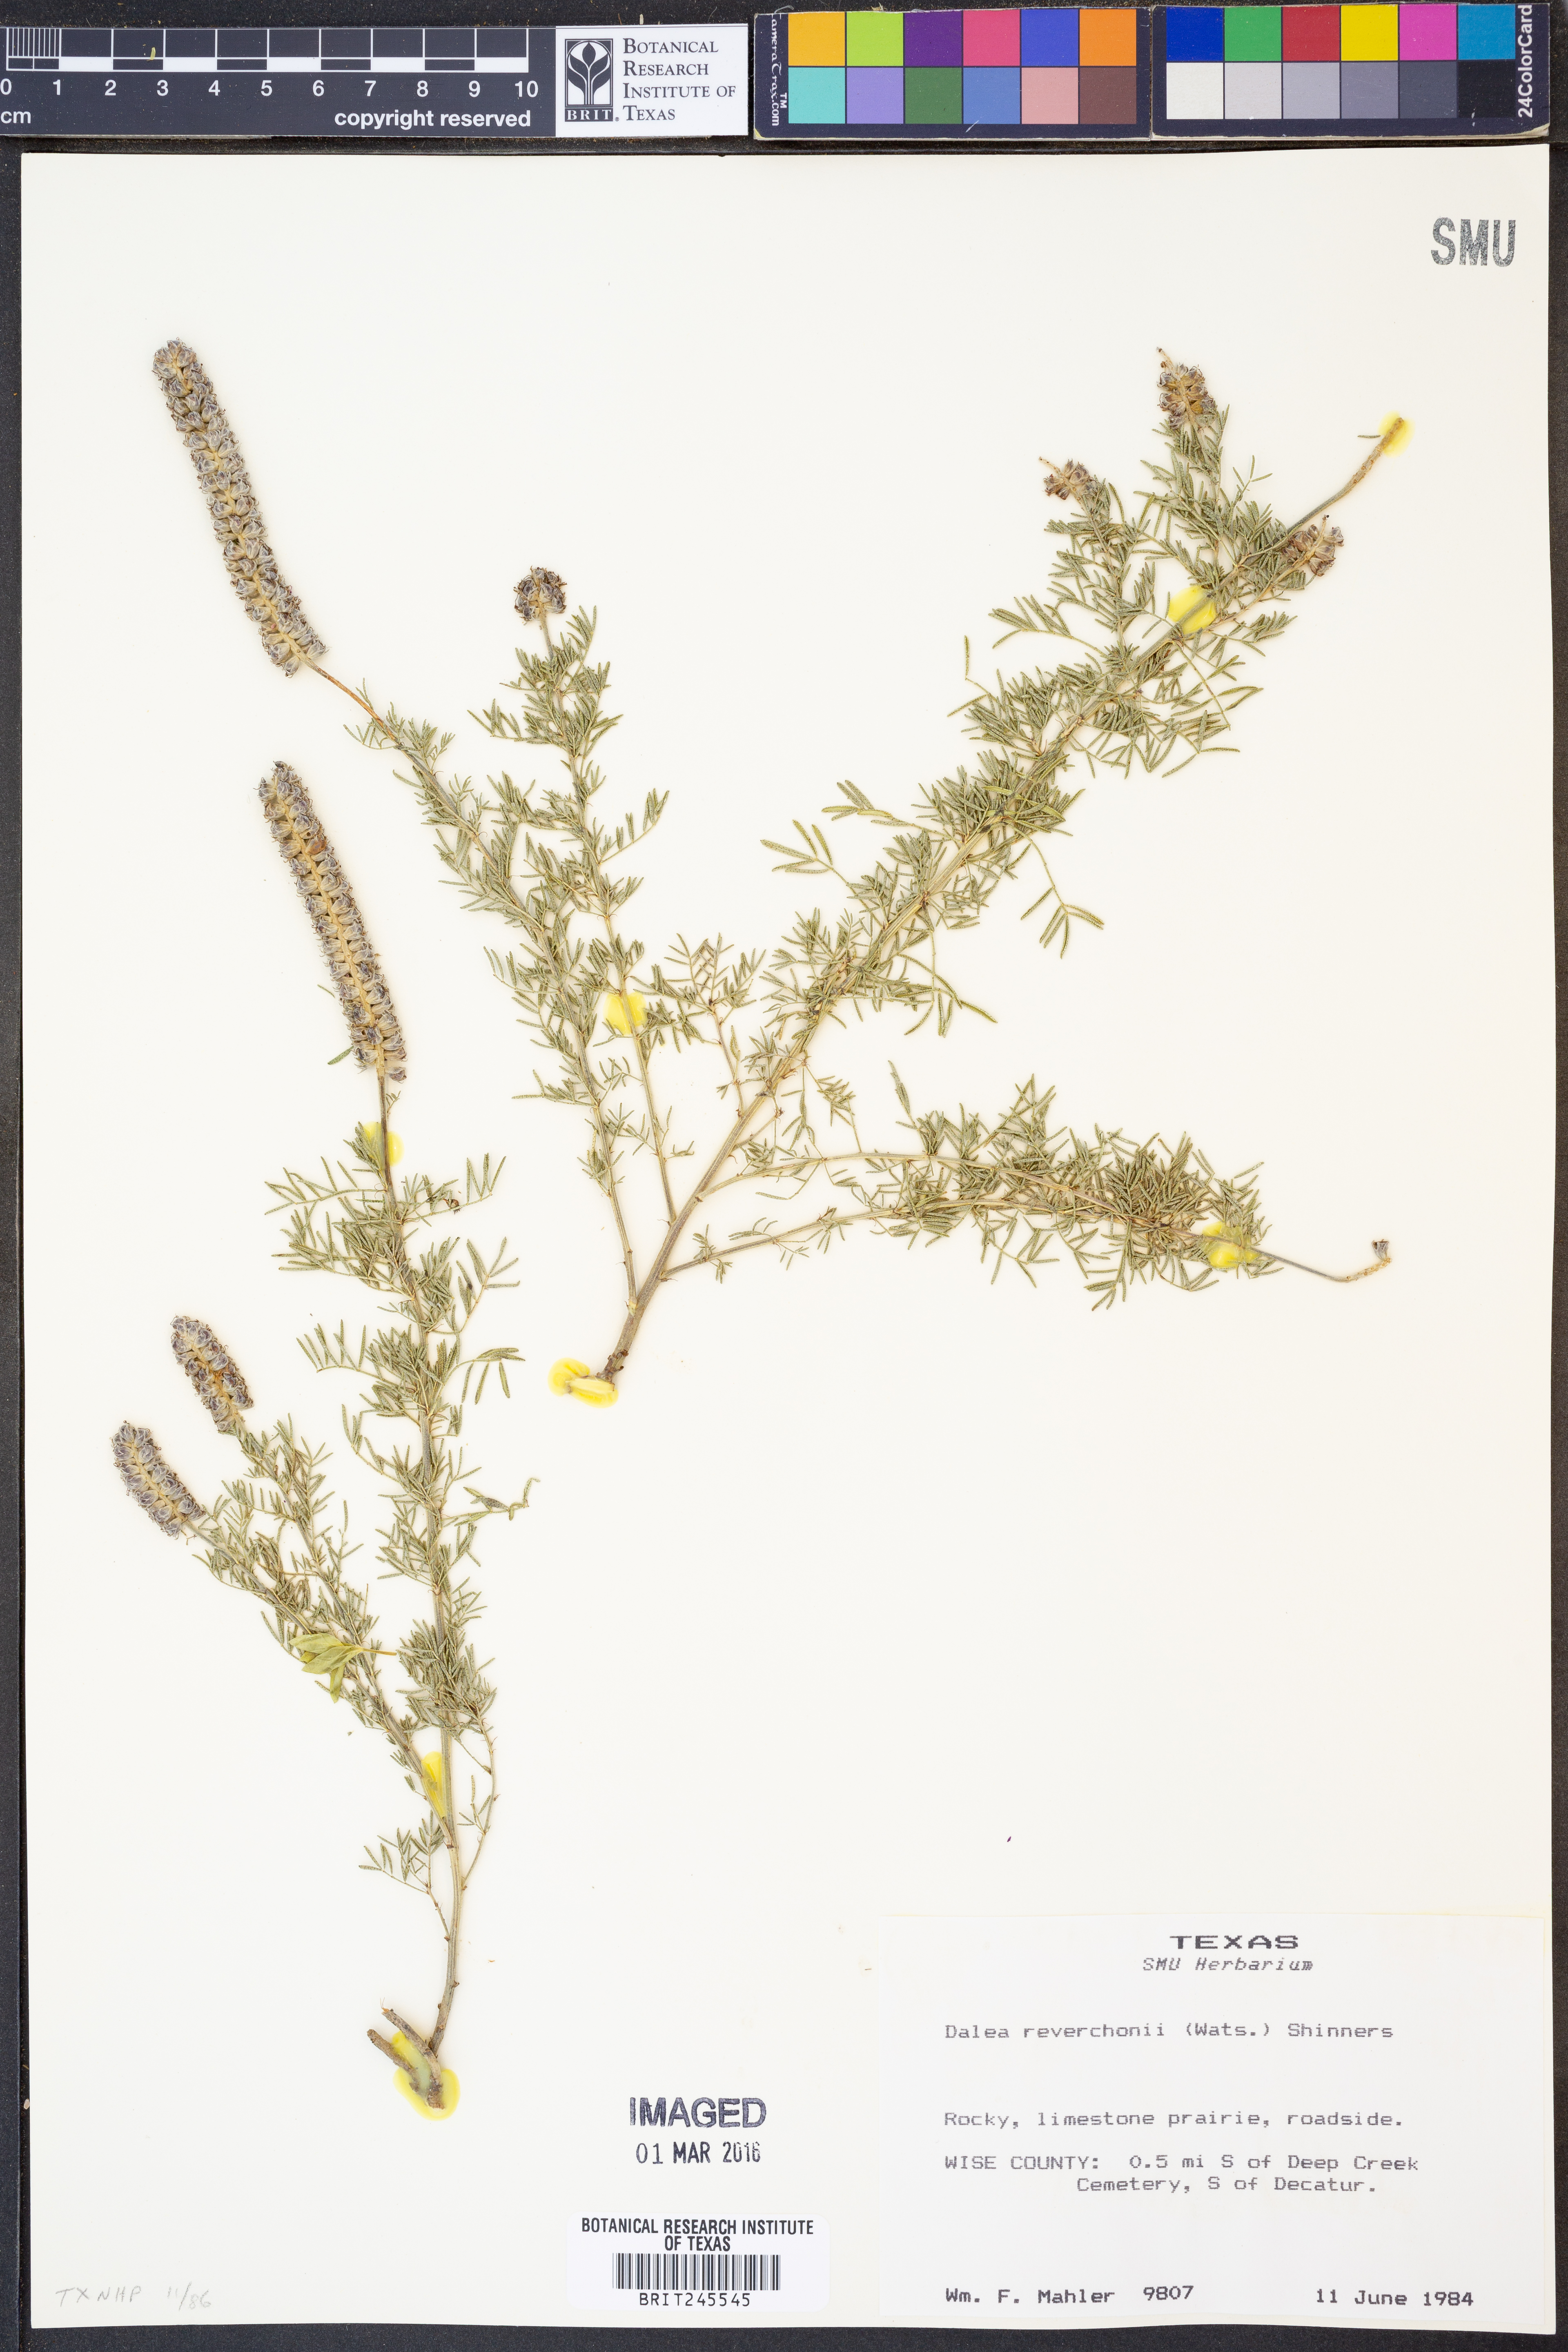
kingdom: Plantae
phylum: Tracheophyta
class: Magnoliopsida
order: Fabales
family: Fabaceae
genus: Dalea
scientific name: Dalea reverchonii
